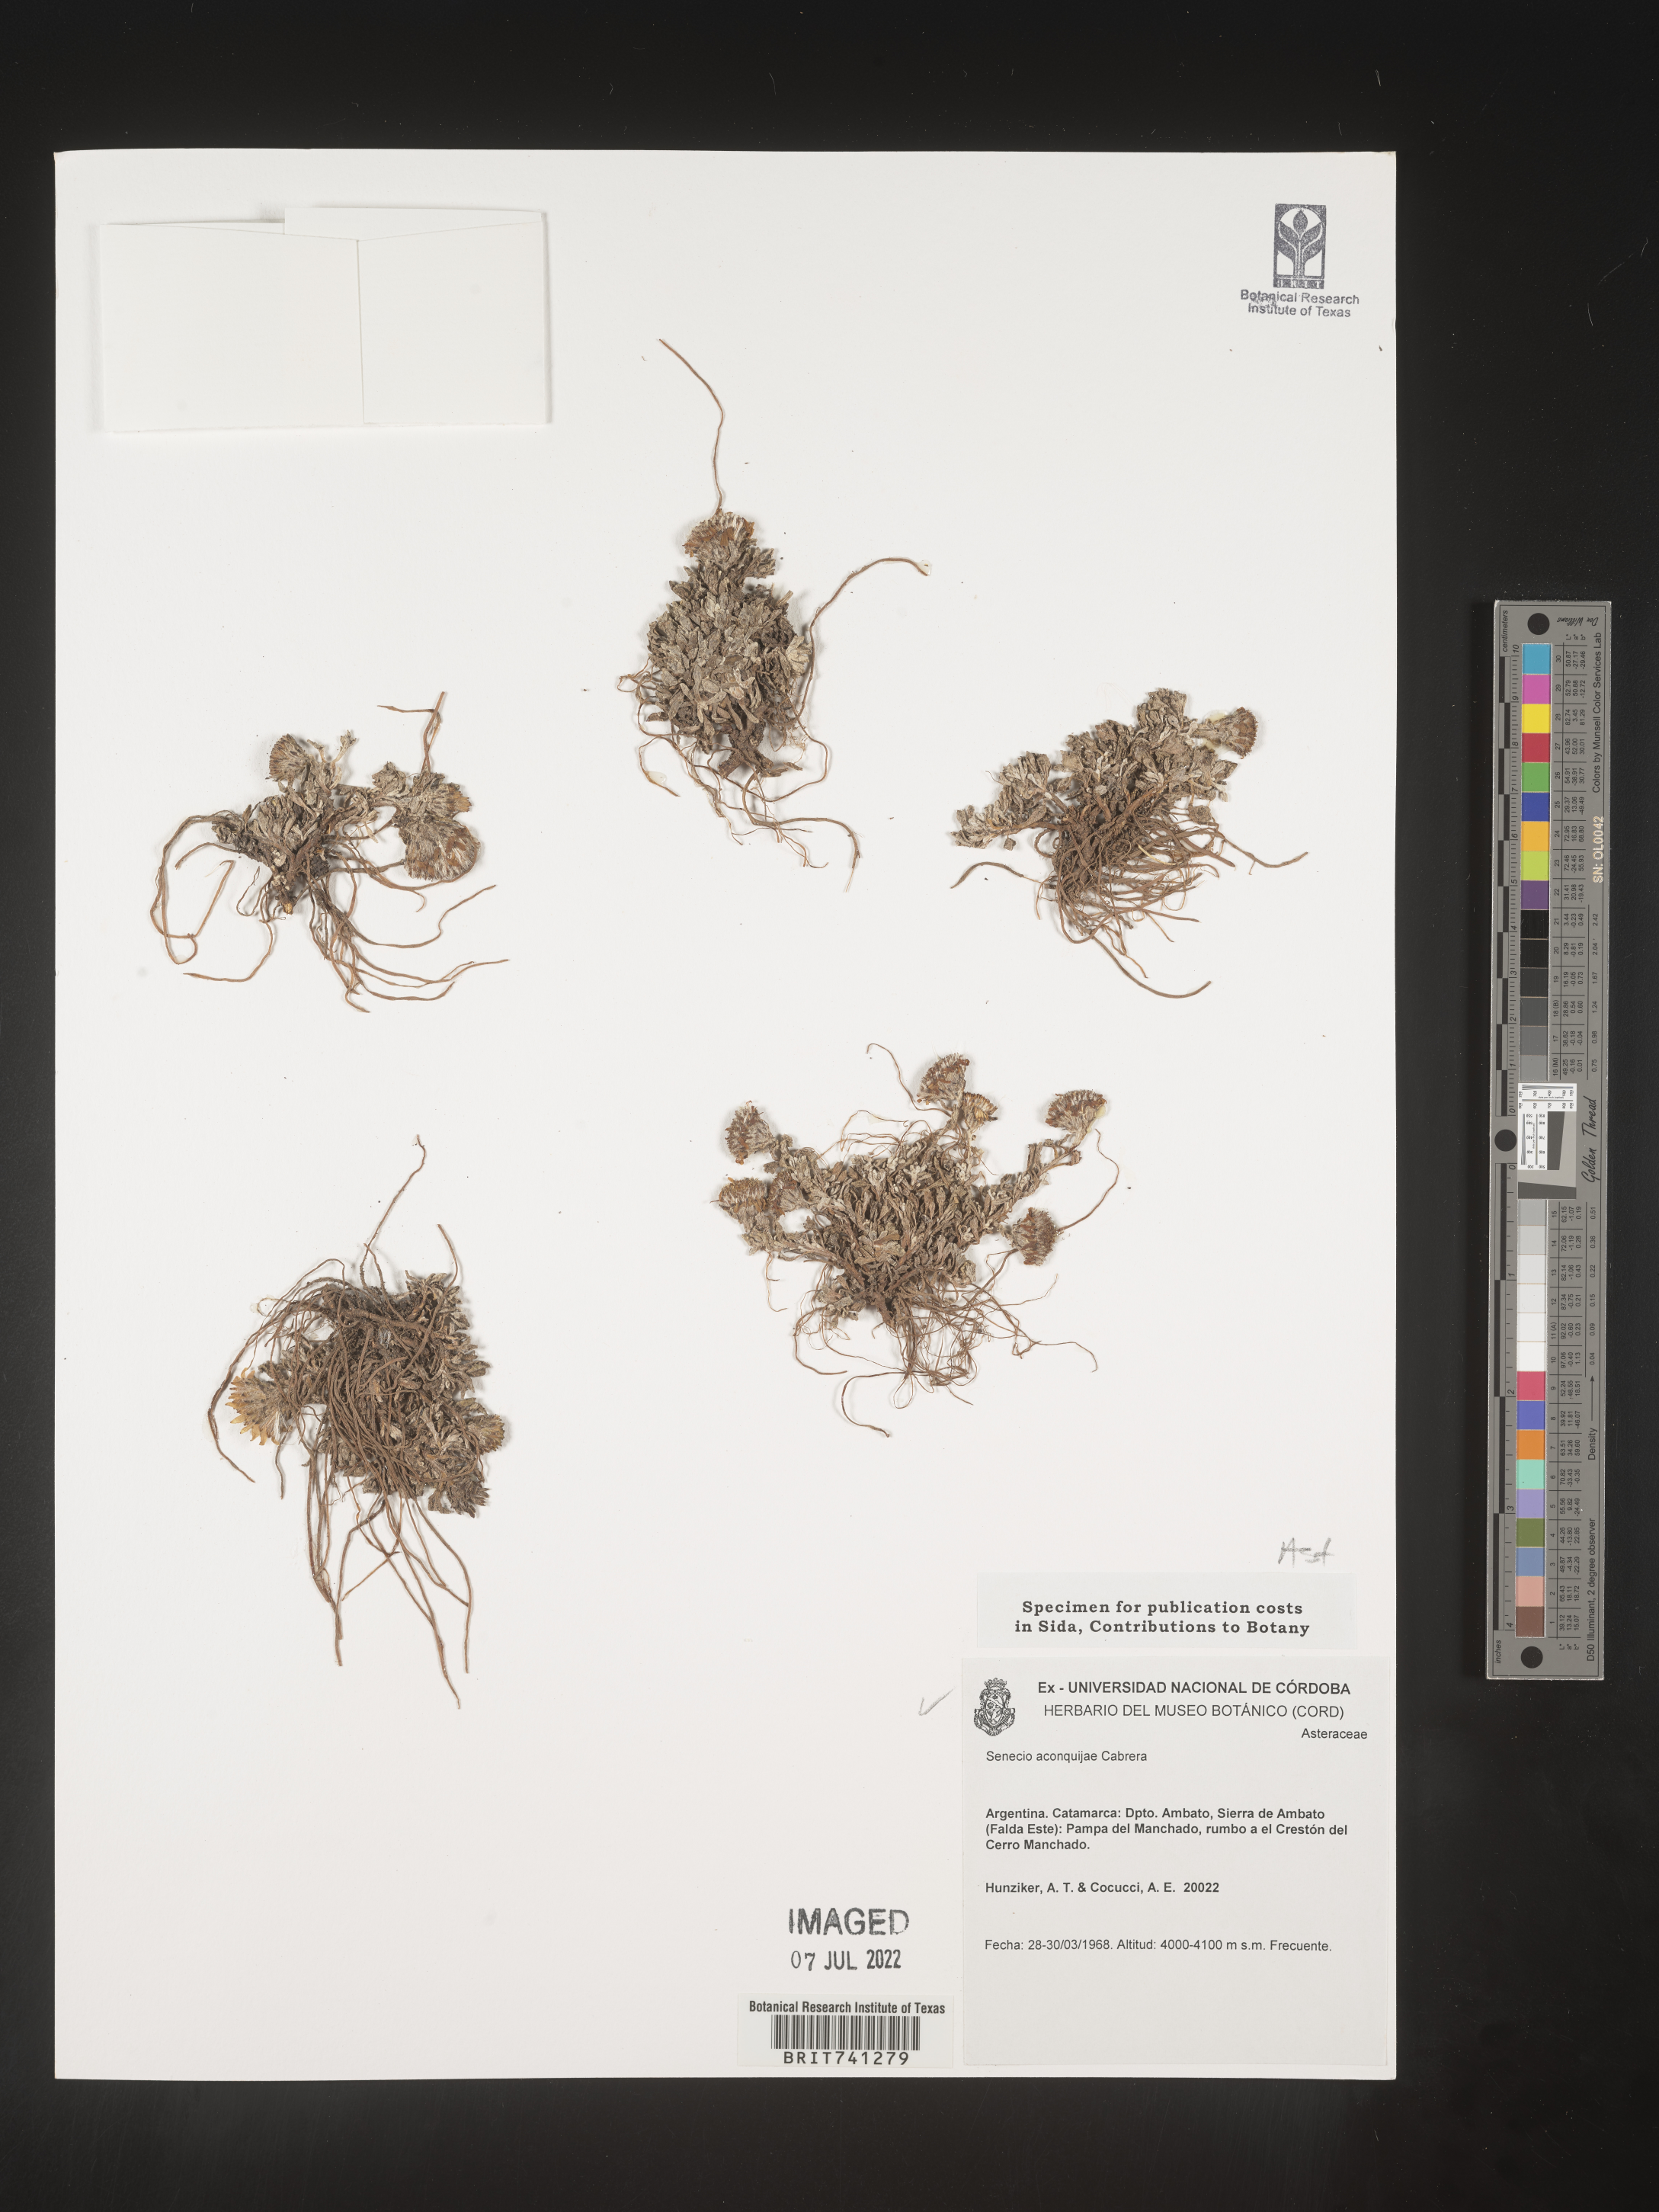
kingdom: Plantae
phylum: Tracheophyta
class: Magnoliopsida
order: Asterales
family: Asteraceae
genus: Senecio
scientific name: Senecio
